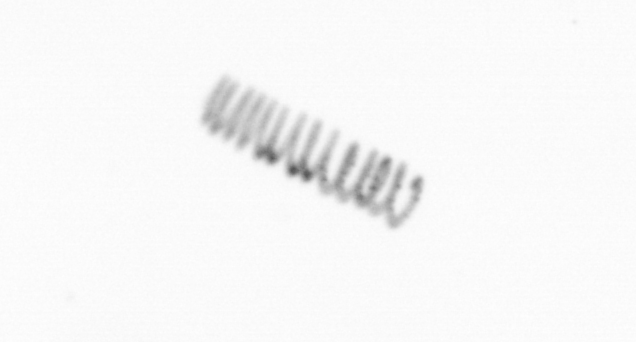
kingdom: Chromista
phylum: Ochrophyta
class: Bacillariophyceae
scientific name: Bacillariophyceae
